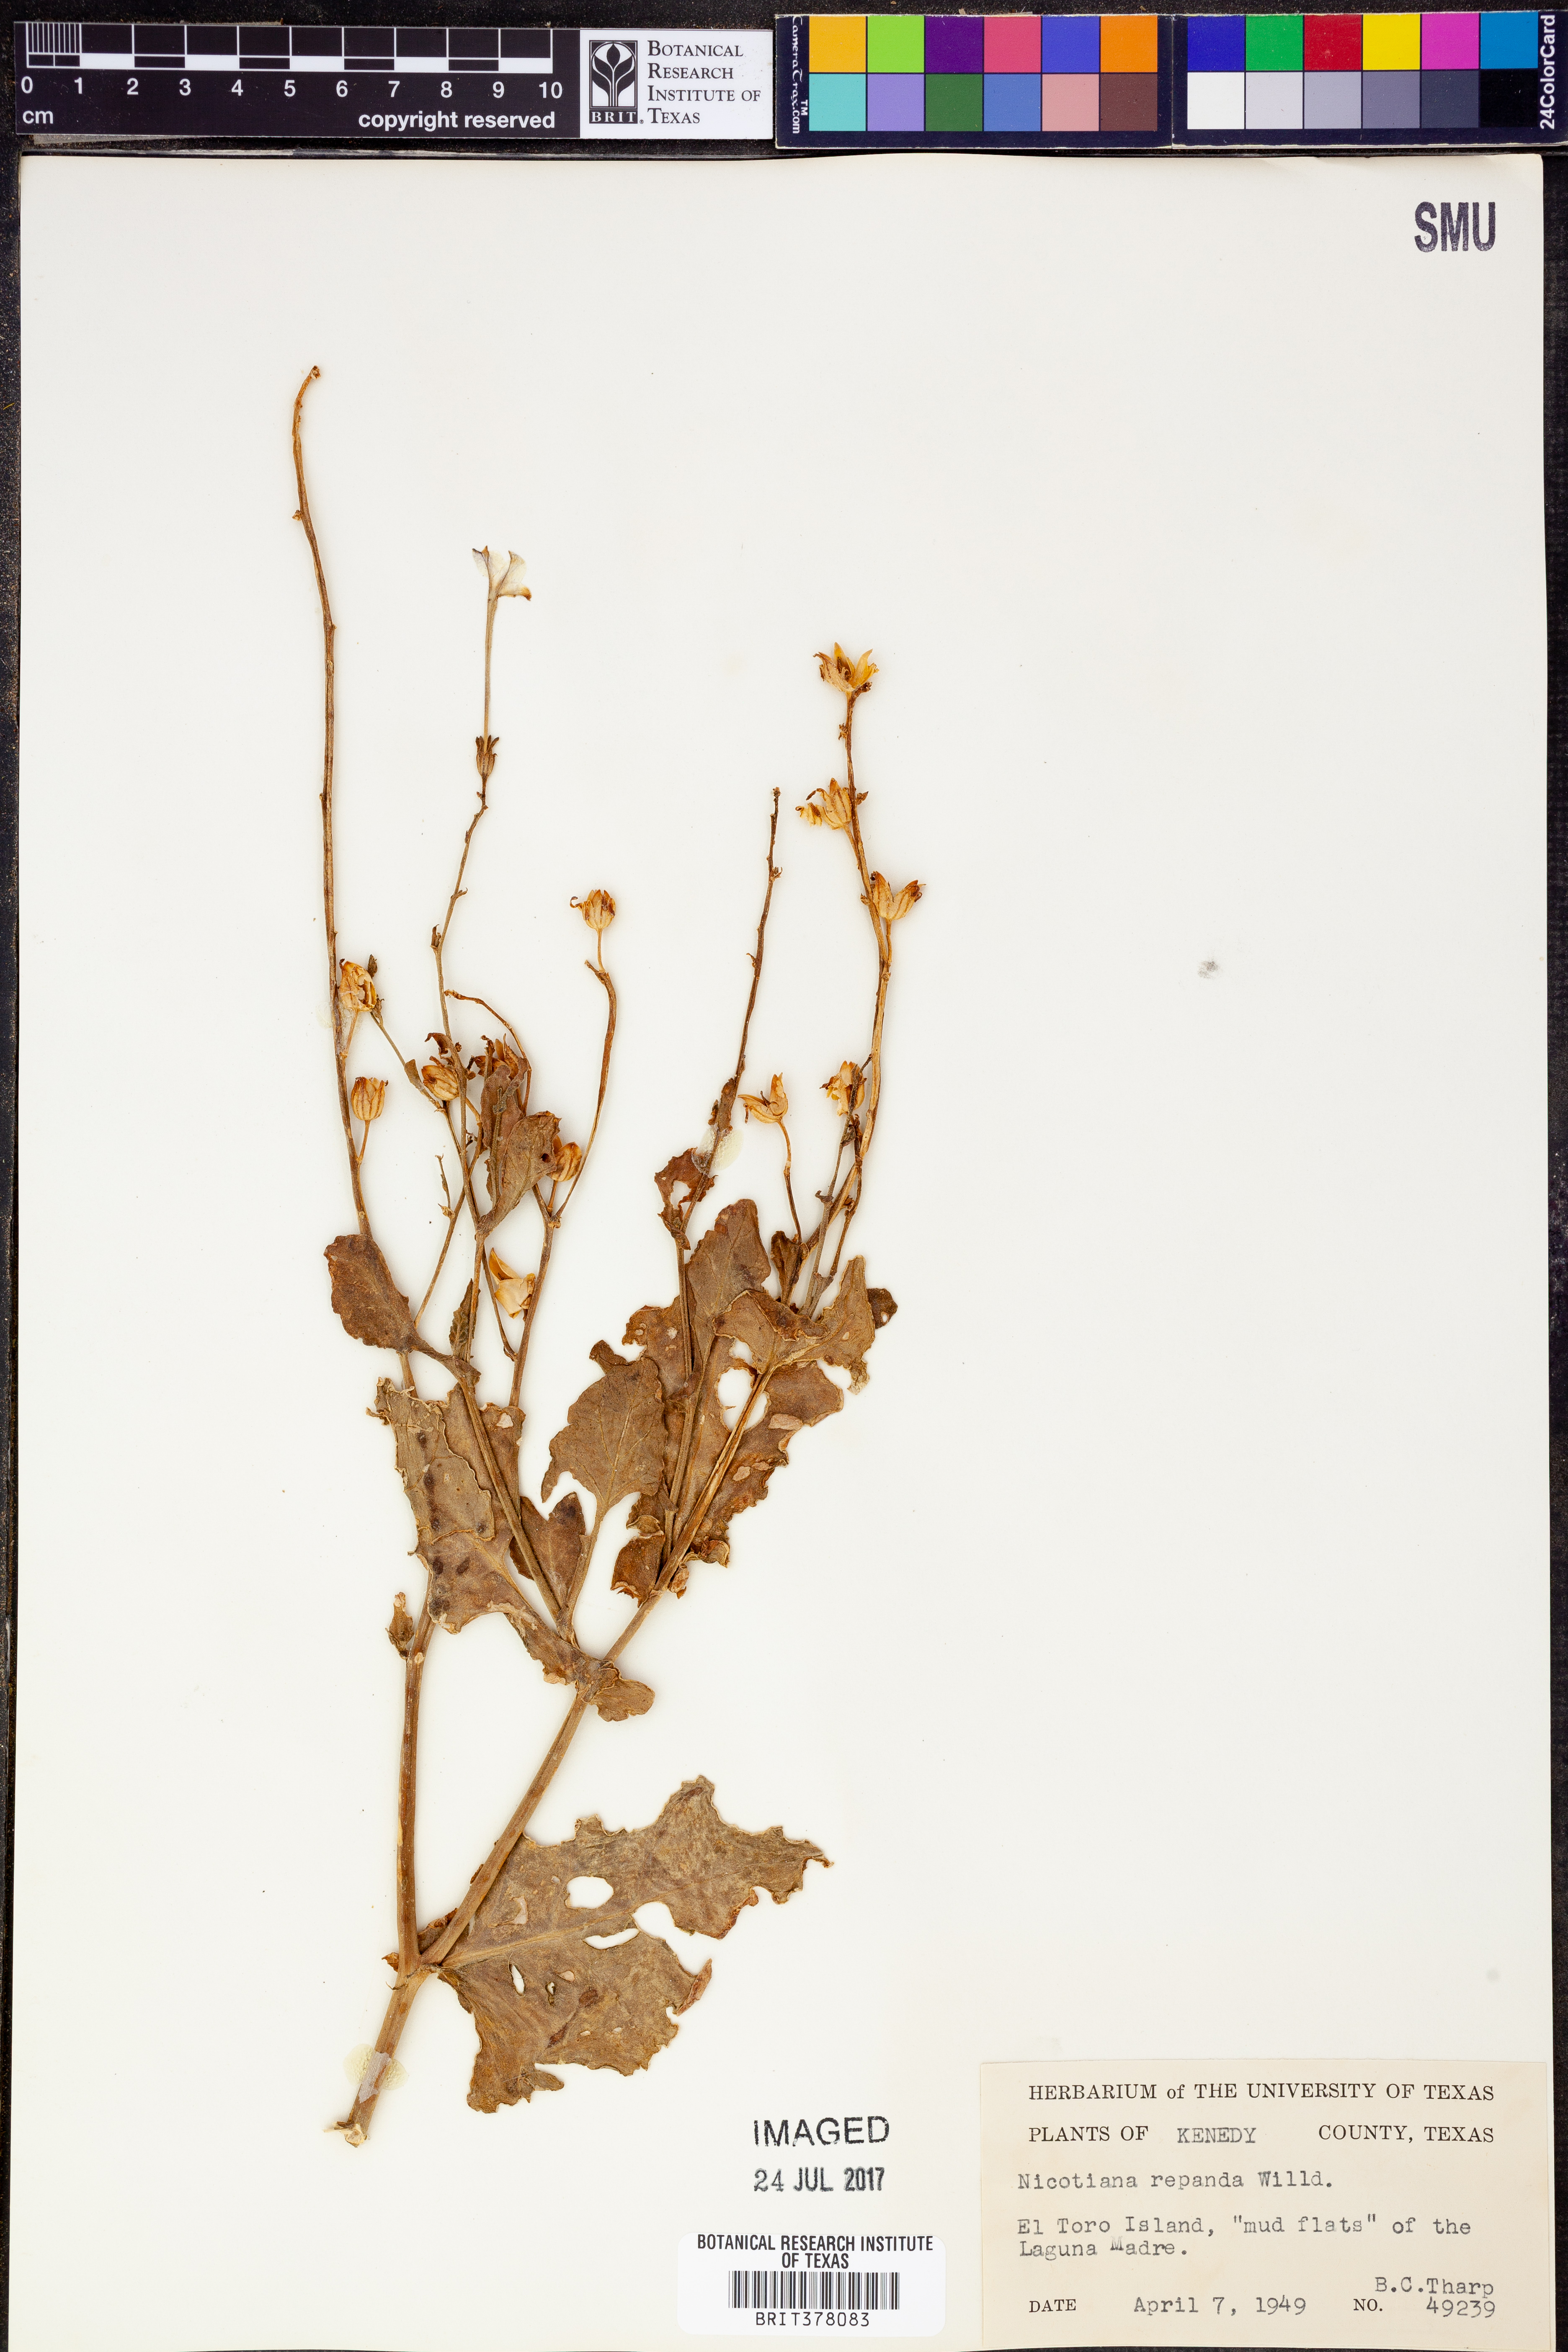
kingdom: Plantae
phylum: Tracheophyta
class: Magnoliopsida
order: Solanales
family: Solanaceae
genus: Nicotiana
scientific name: Nicotiana repanda
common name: Fiddle-leaf tobacco
